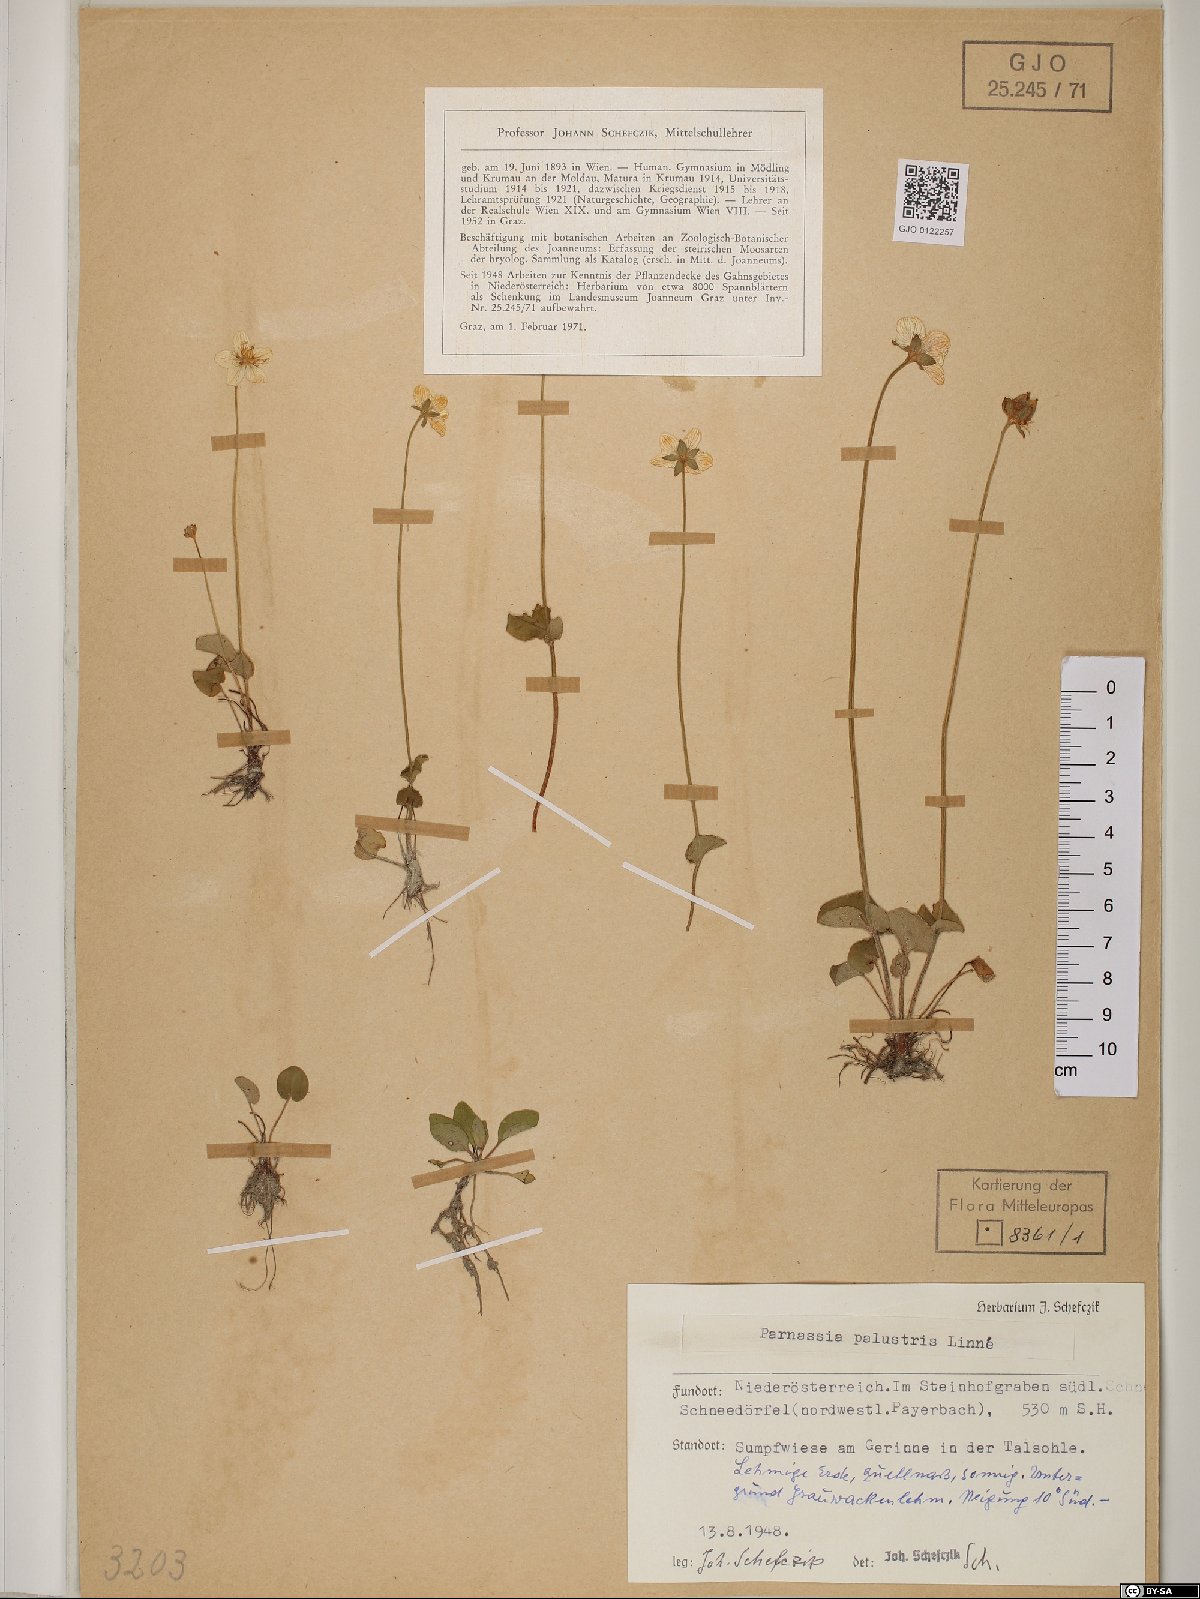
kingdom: Plantae
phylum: Tracheophyta
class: Magnoliopsida
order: Celastrales
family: Parnassiaceae
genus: Parnassia
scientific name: Parnassia palustris
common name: Grass-of-parnassus
